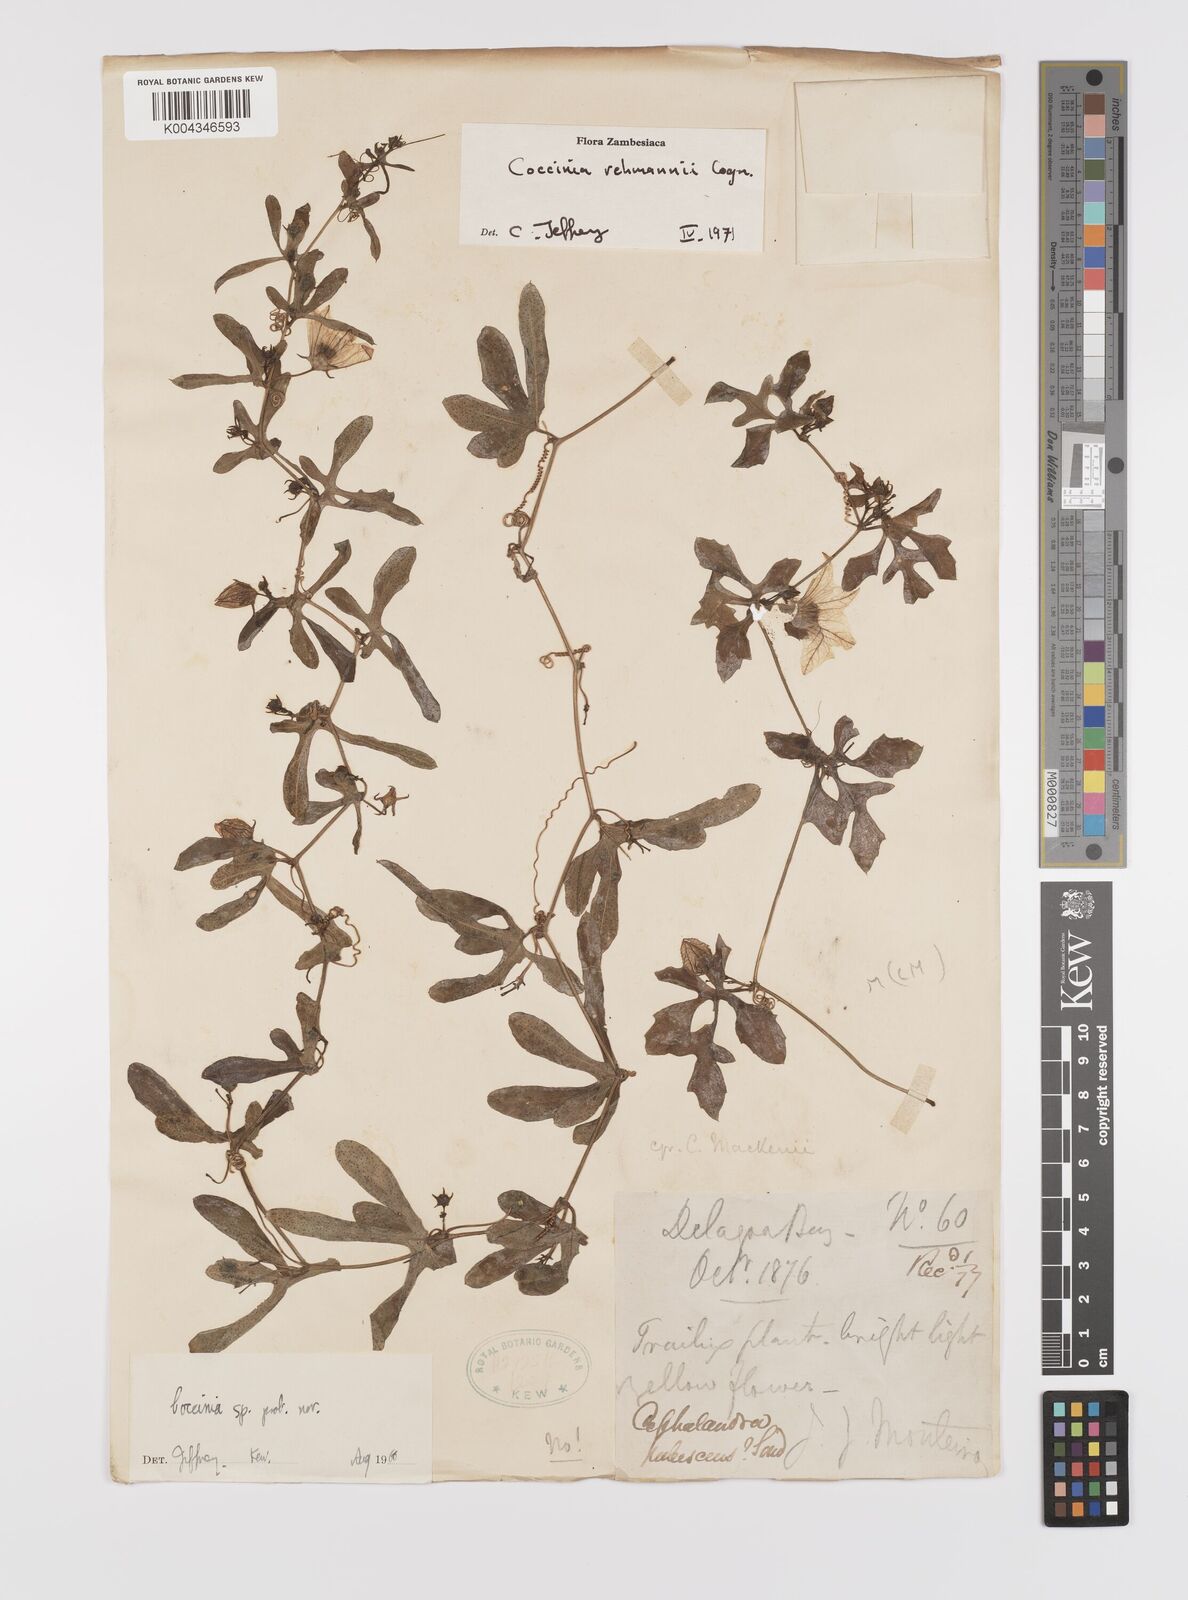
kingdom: Plantae
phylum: Tracheophyta
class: Magnoliopsida
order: Cucurbitales
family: Cucurbitaceae
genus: Coccinia
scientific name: Coccinia rehmannii
